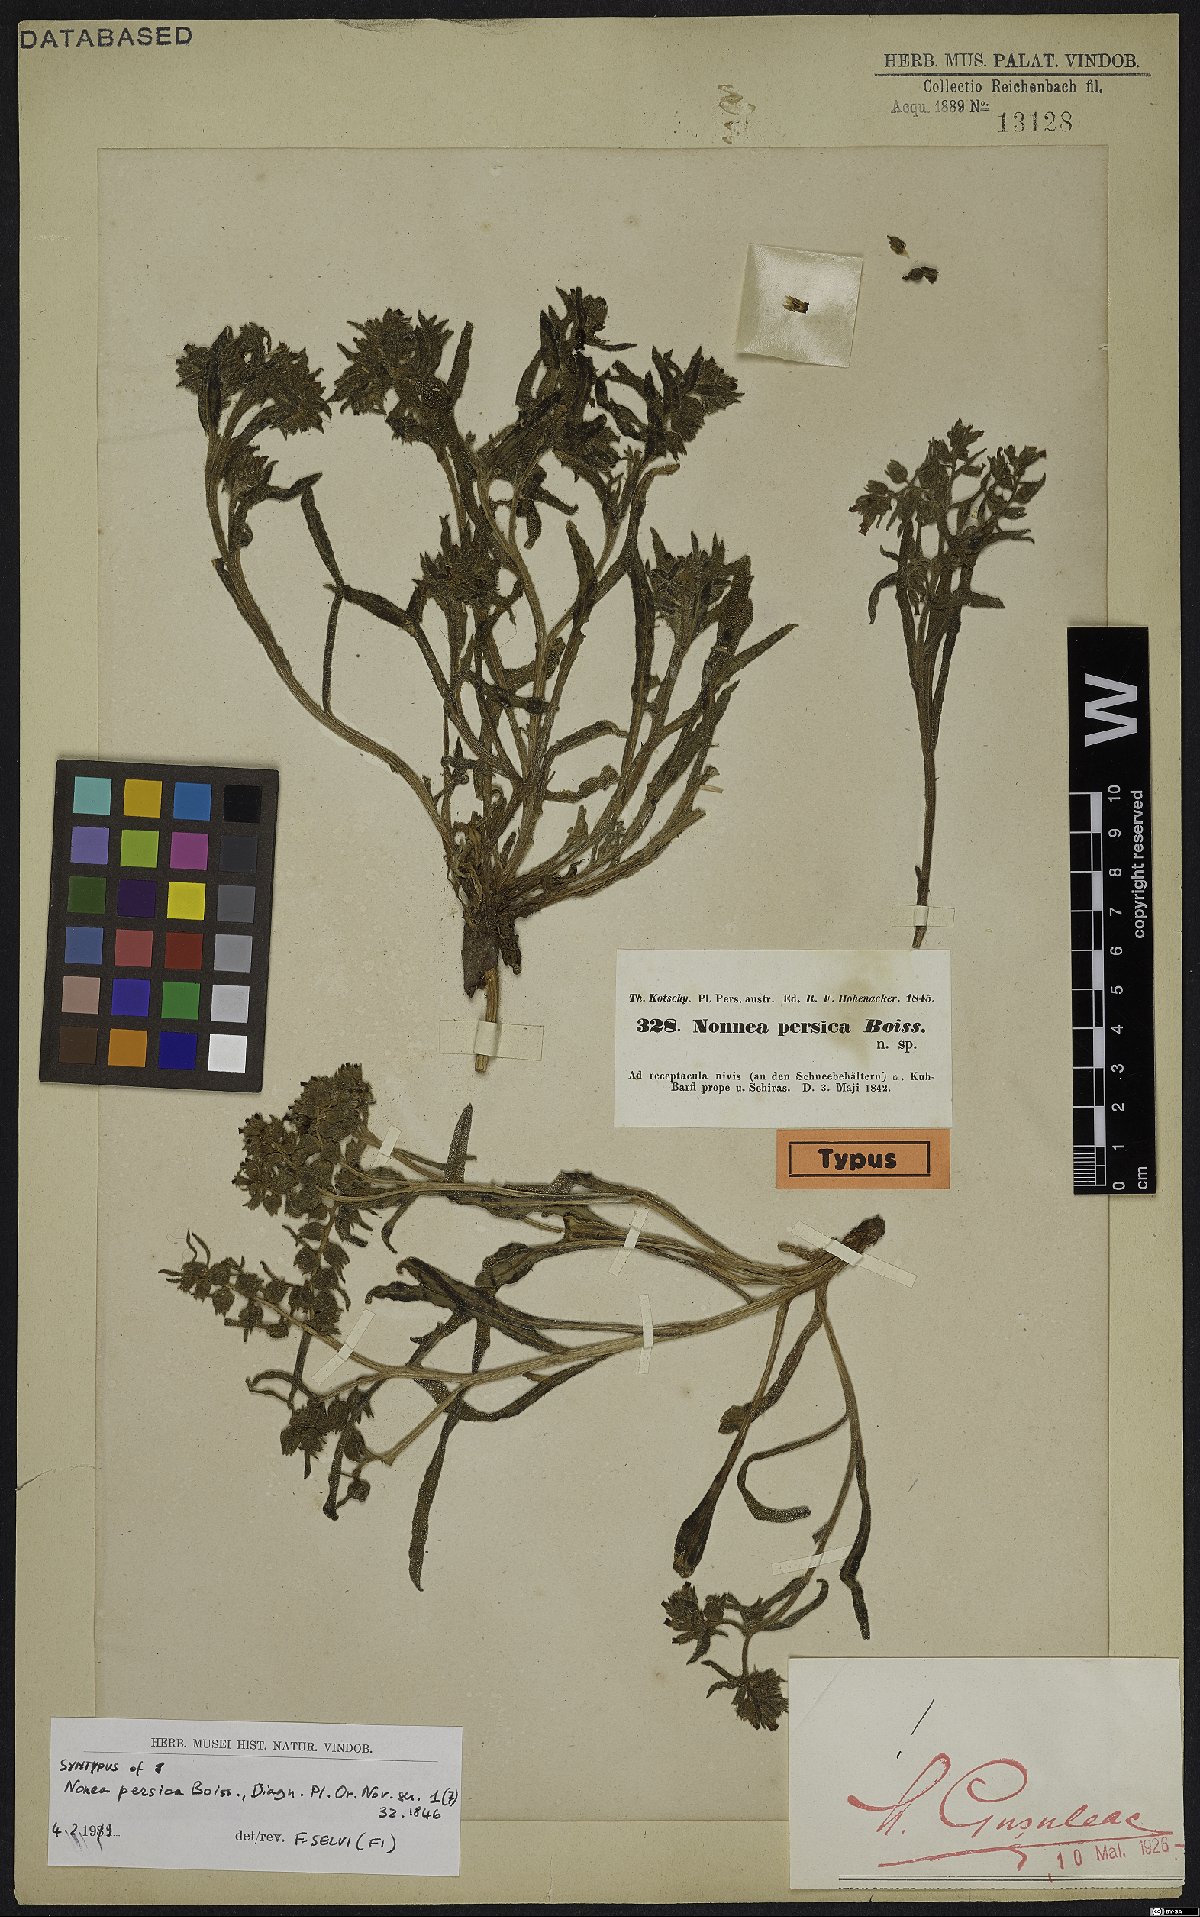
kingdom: Plantae
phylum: Tracheophyta
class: Magnoliopsida
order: Boraginales
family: Boraginaceae
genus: Nonea
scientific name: Nonea persica
